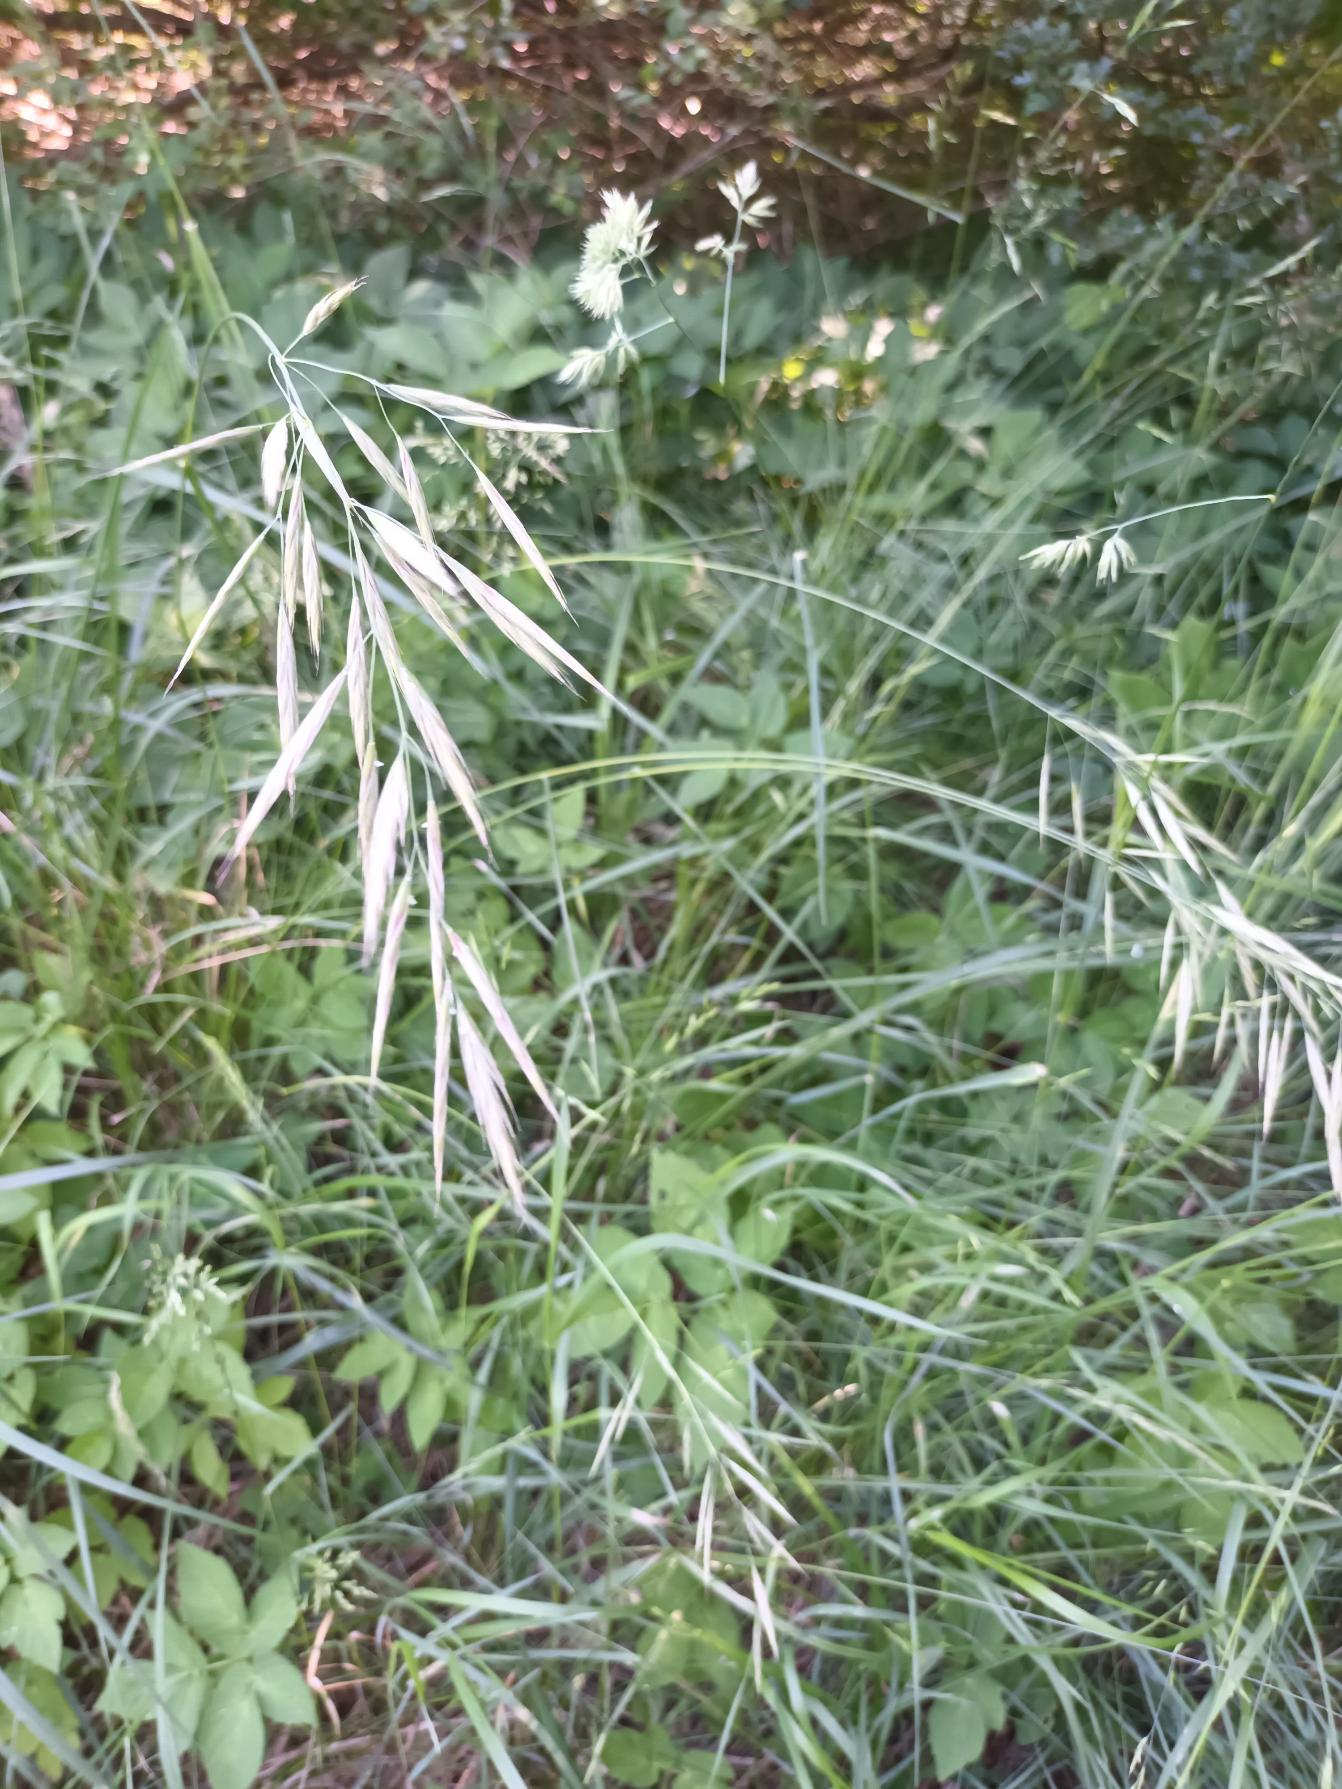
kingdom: Plantae
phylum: Tracheophyta
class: Liliopsida
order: Poales
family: Poaceae
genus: Bromus
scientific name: Bromus erectus
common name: Opret hejre
